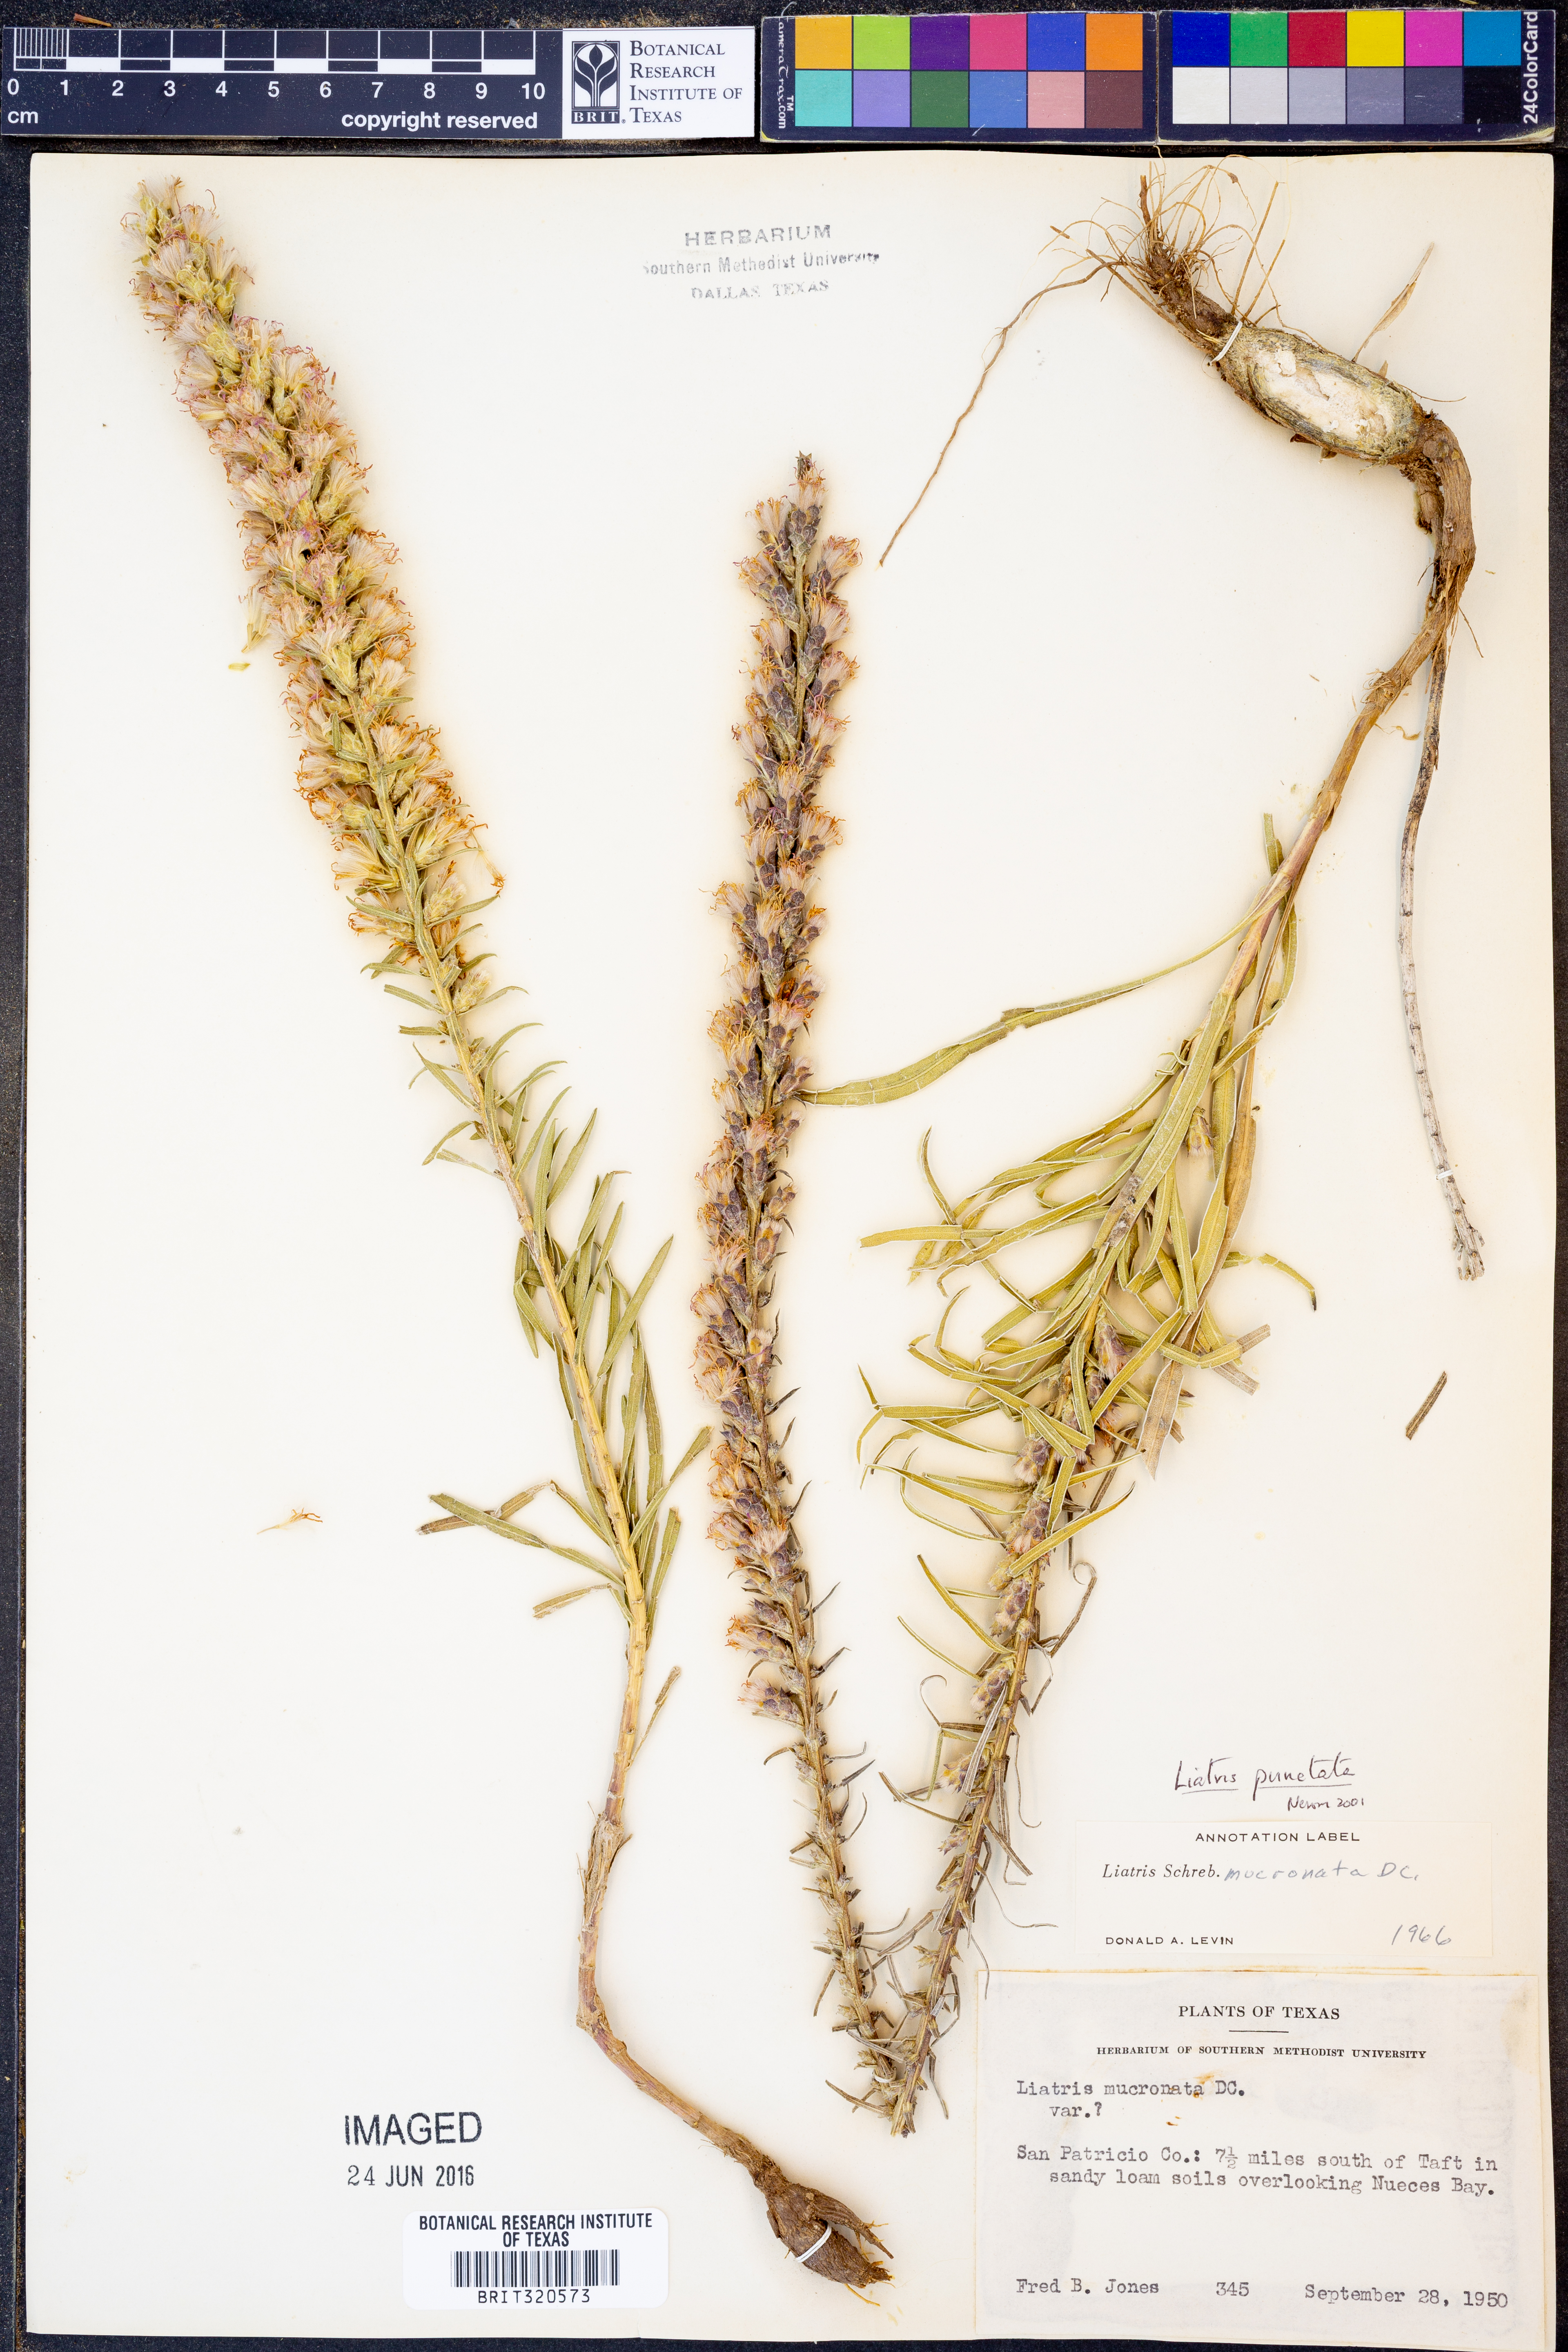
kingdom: Plantae
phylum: Tracheophyta
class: Magnoliopsida
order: Asterales
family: Asteraceae
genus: Liatris
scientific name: Liatris punctata
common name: Dotted gayfeather
